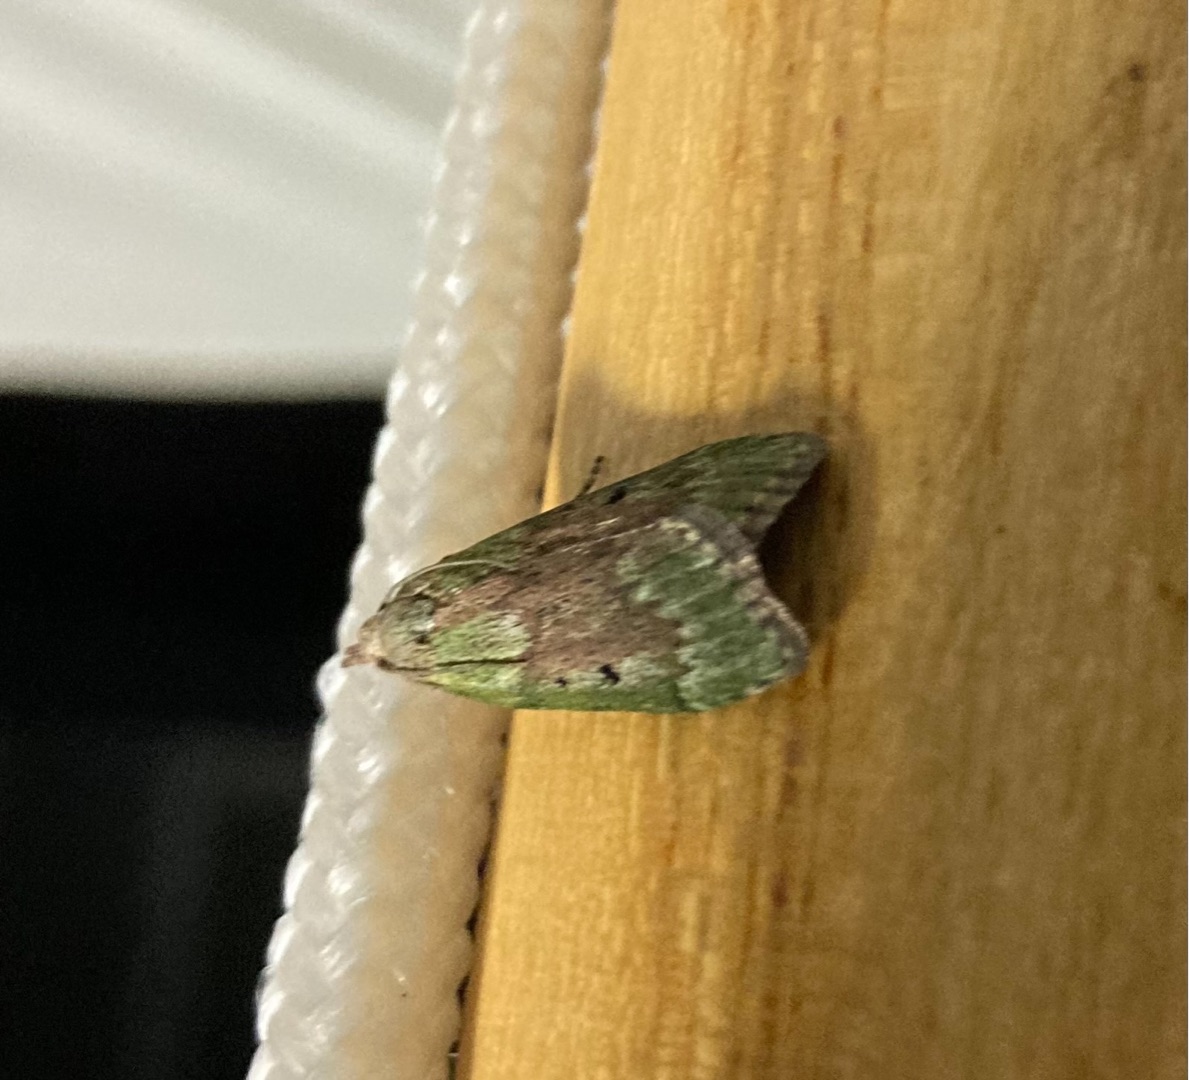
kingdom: Animalia
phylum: Arthropoda
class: Insecta
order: Lepidoptera
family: Pyralidae
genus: Aphomia
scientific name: Aphomia sociella
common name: Humlevoksmøl
